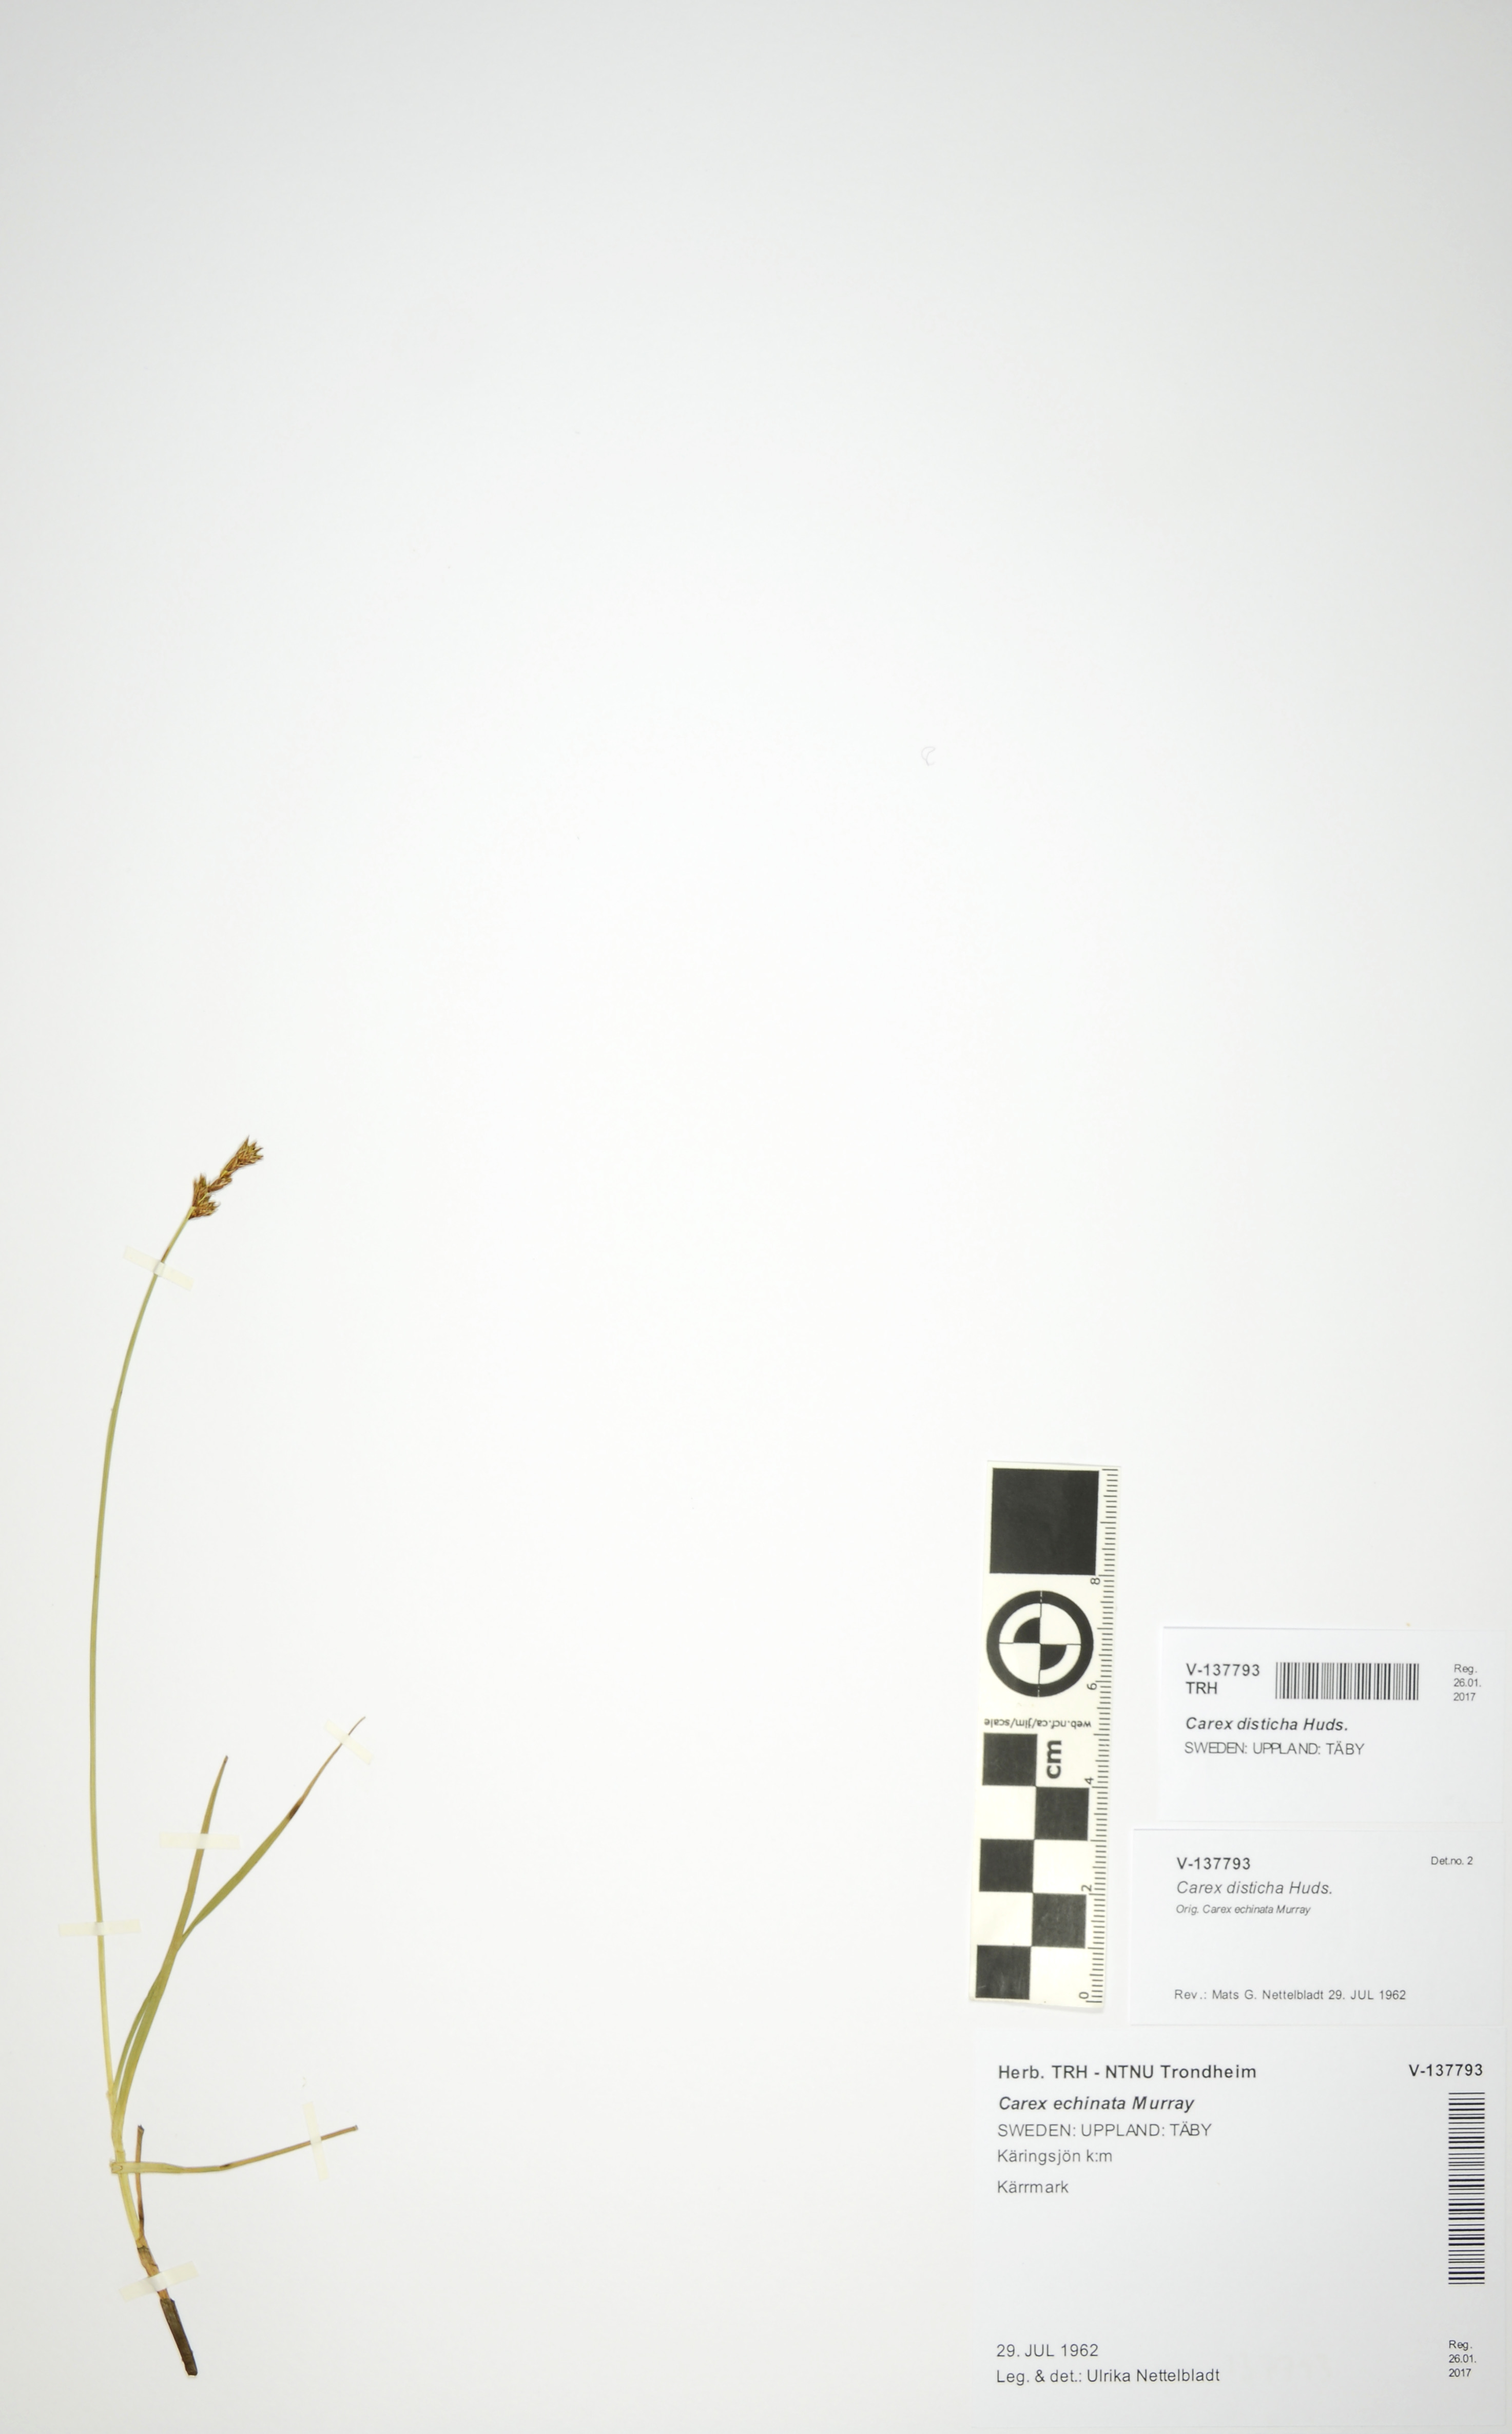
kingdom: Plantae
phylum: Tracheophyta
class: Liliopsida
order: Poales
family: Cyperaceae
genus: Carex
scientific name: Carex disticha
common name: Brown sedge
